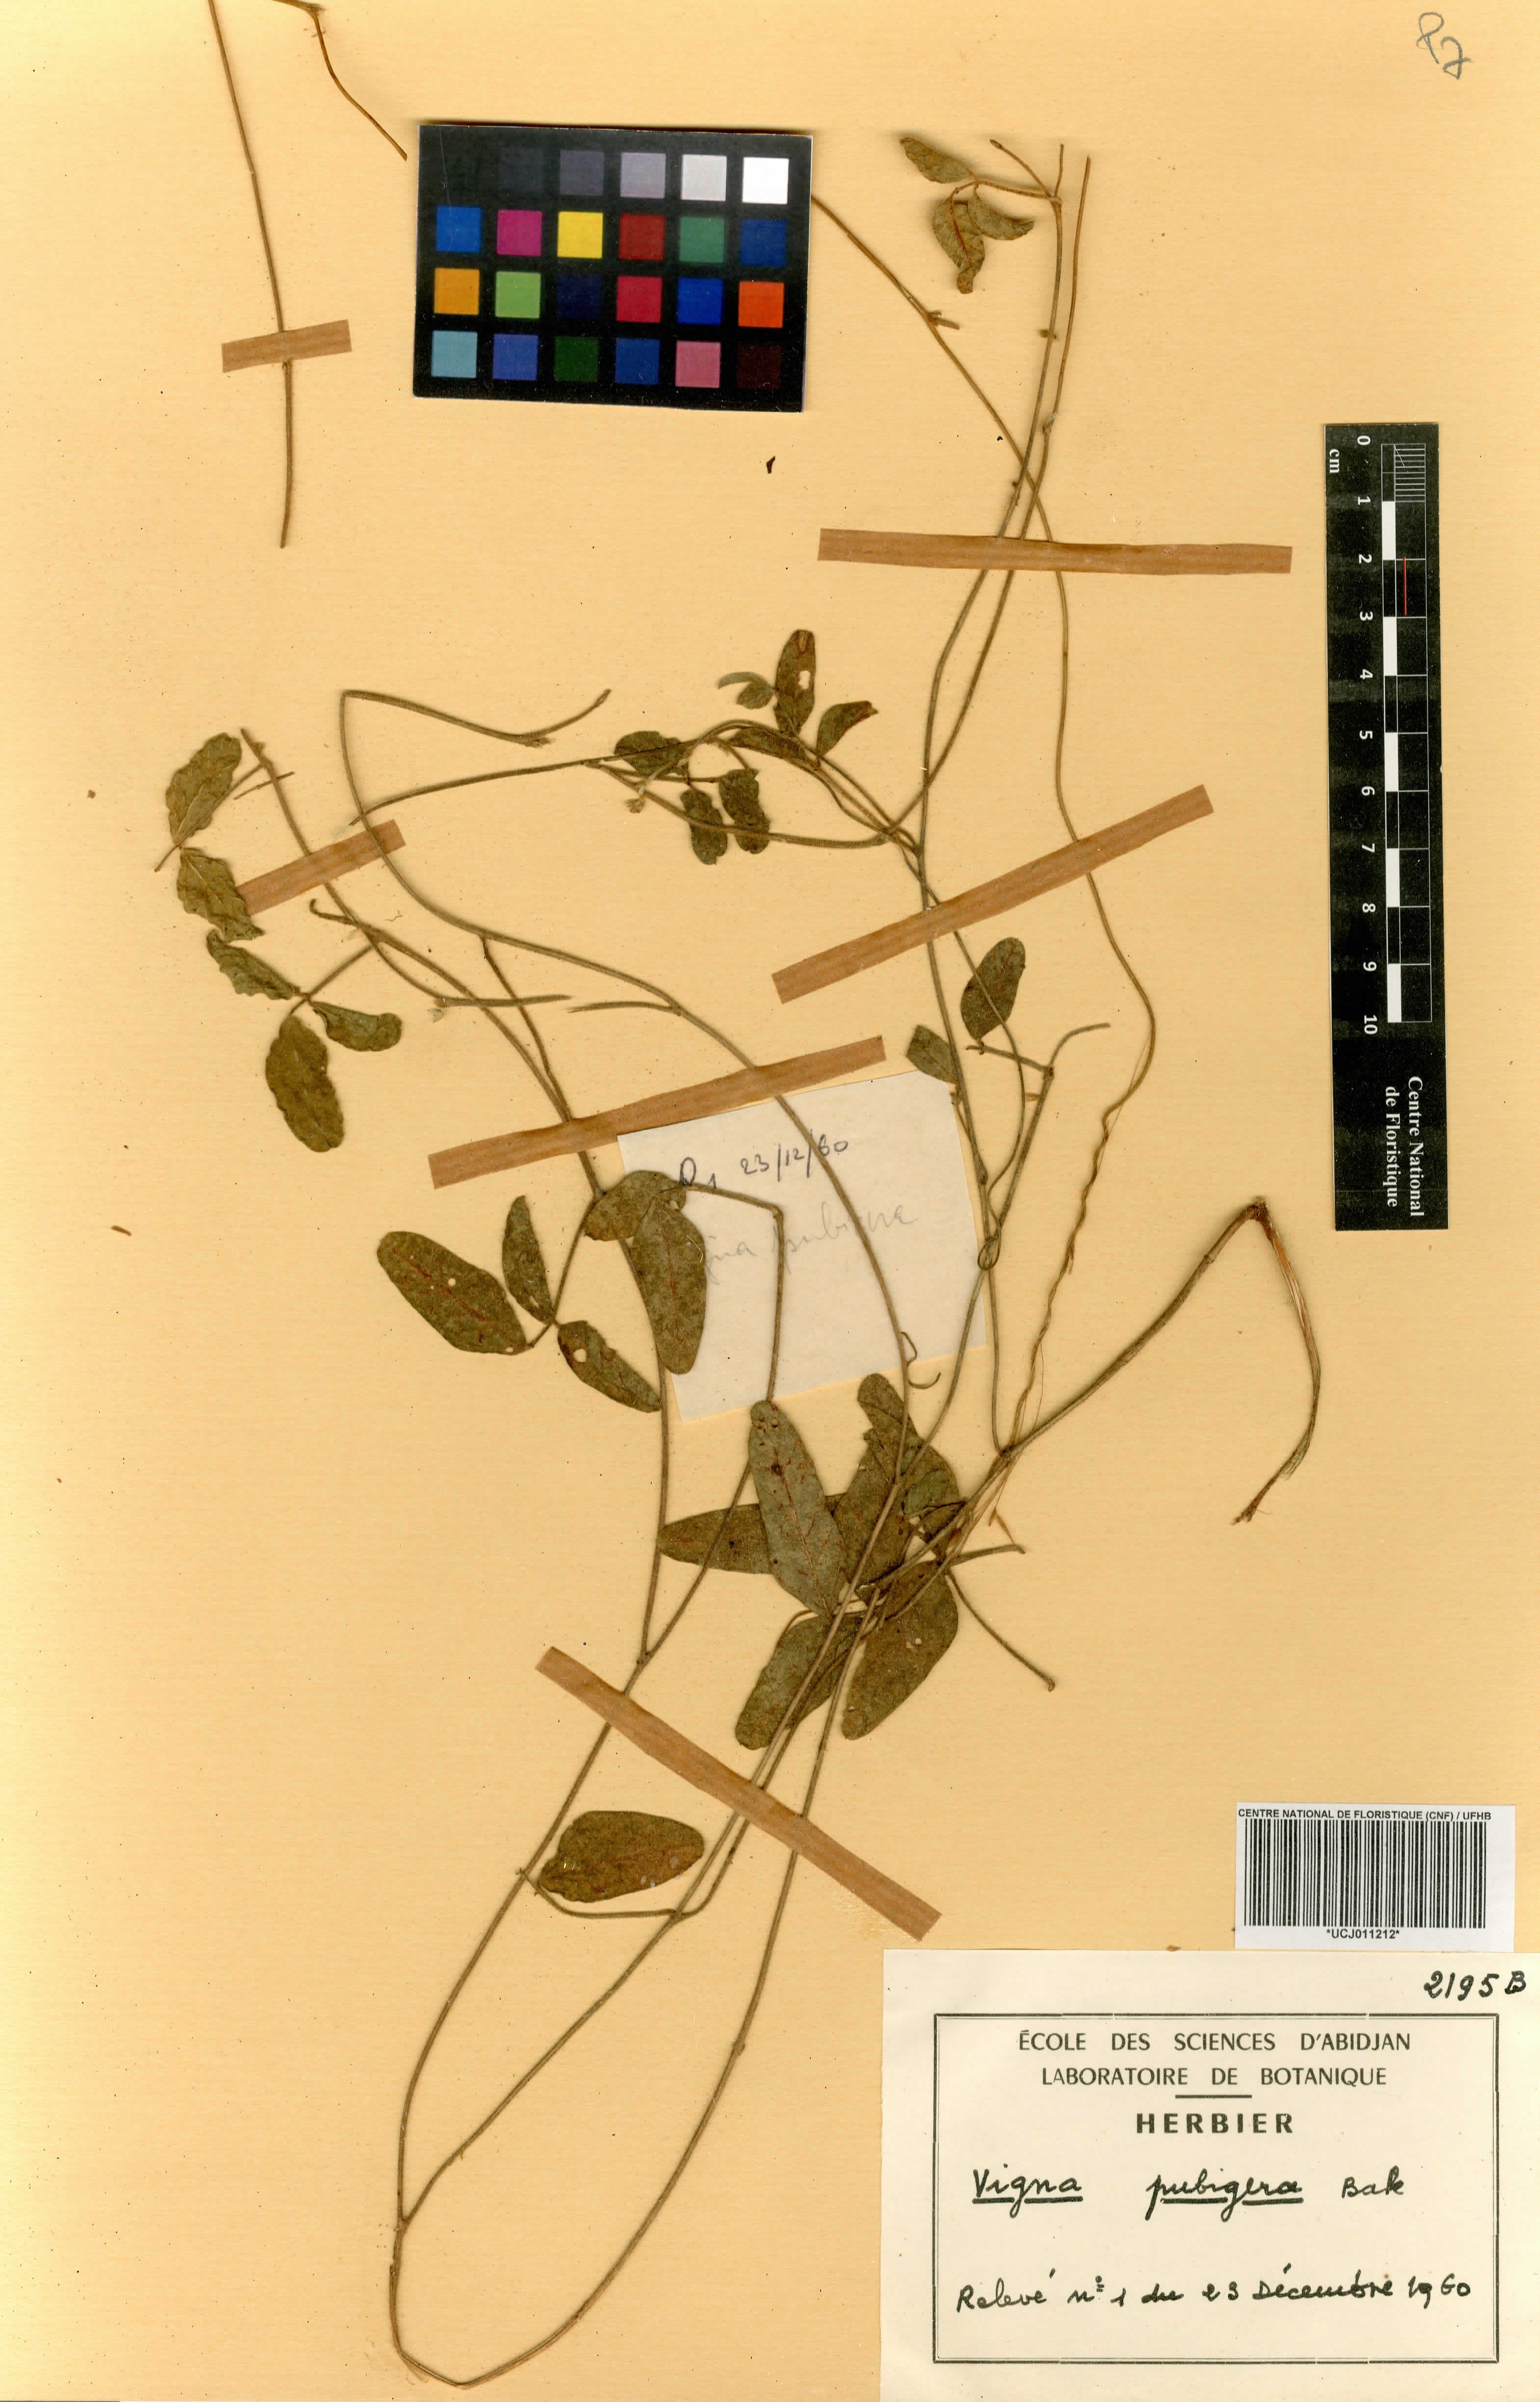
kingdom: Plantae
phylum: Tracheophyta
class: Magnoliopsida
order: Fabales
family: Fabaceae
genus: Vigna
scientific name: Vigna pubigera
